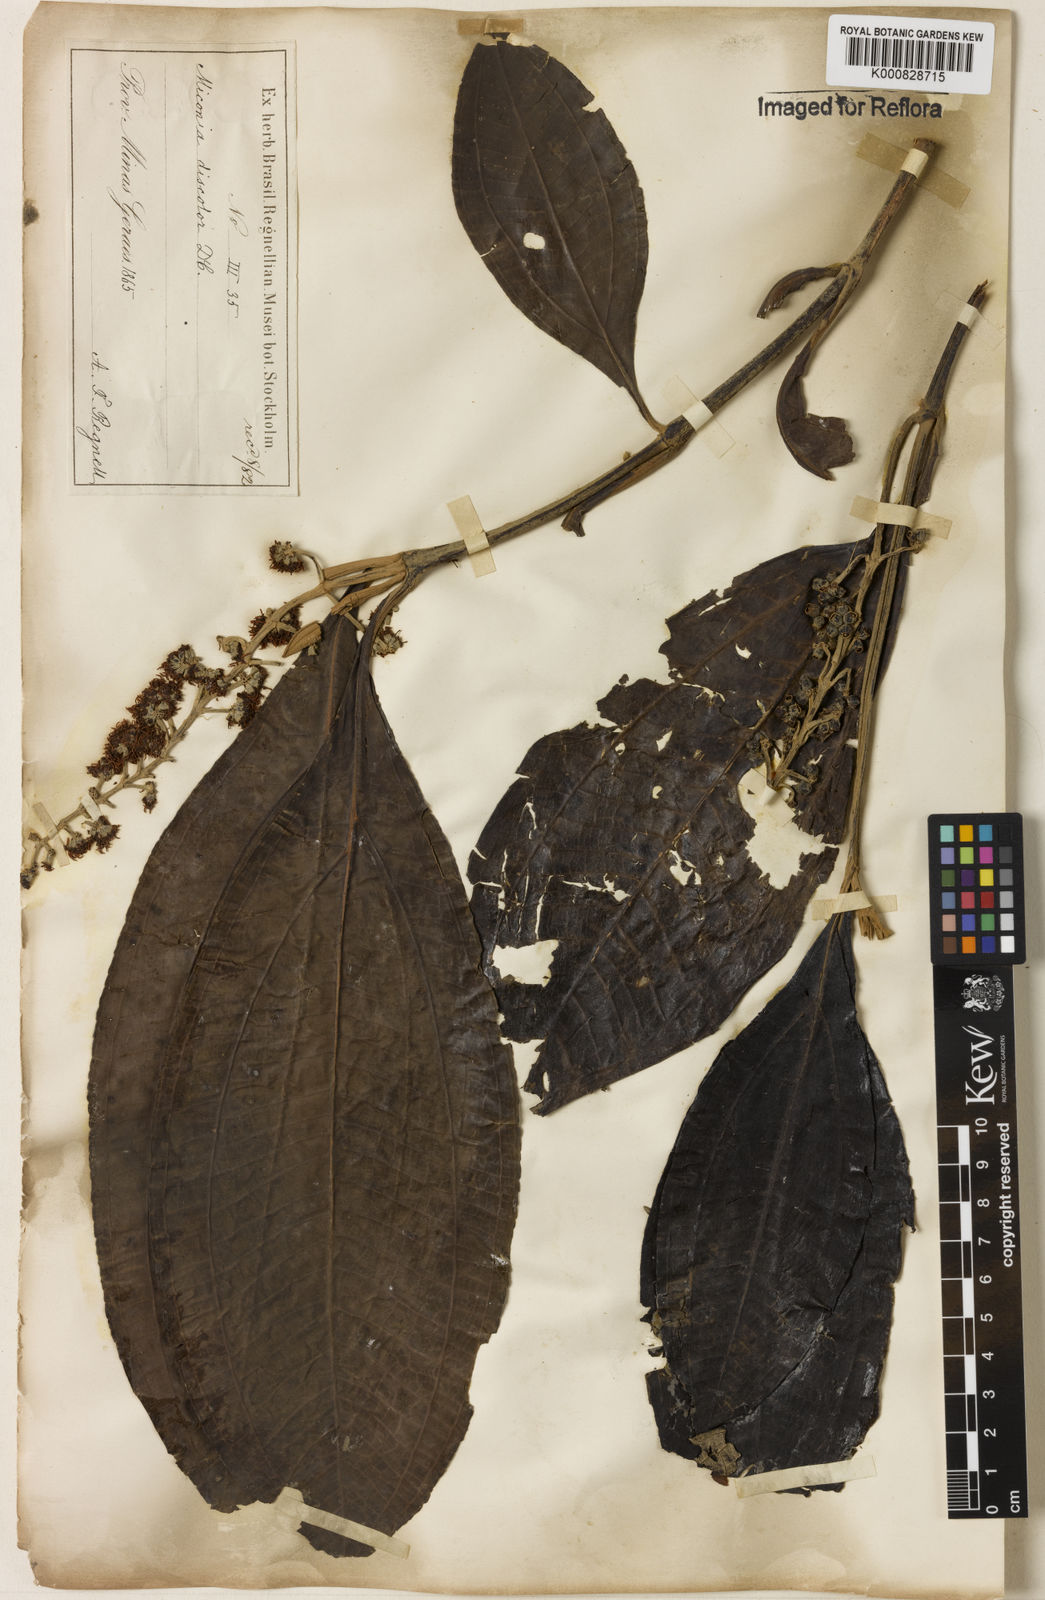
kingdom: Plantae
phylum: Tracheophyta
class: Magnoliopsida
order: Myrtales
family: Melastomataceae
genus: Miconia
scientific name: Miconia discolor
